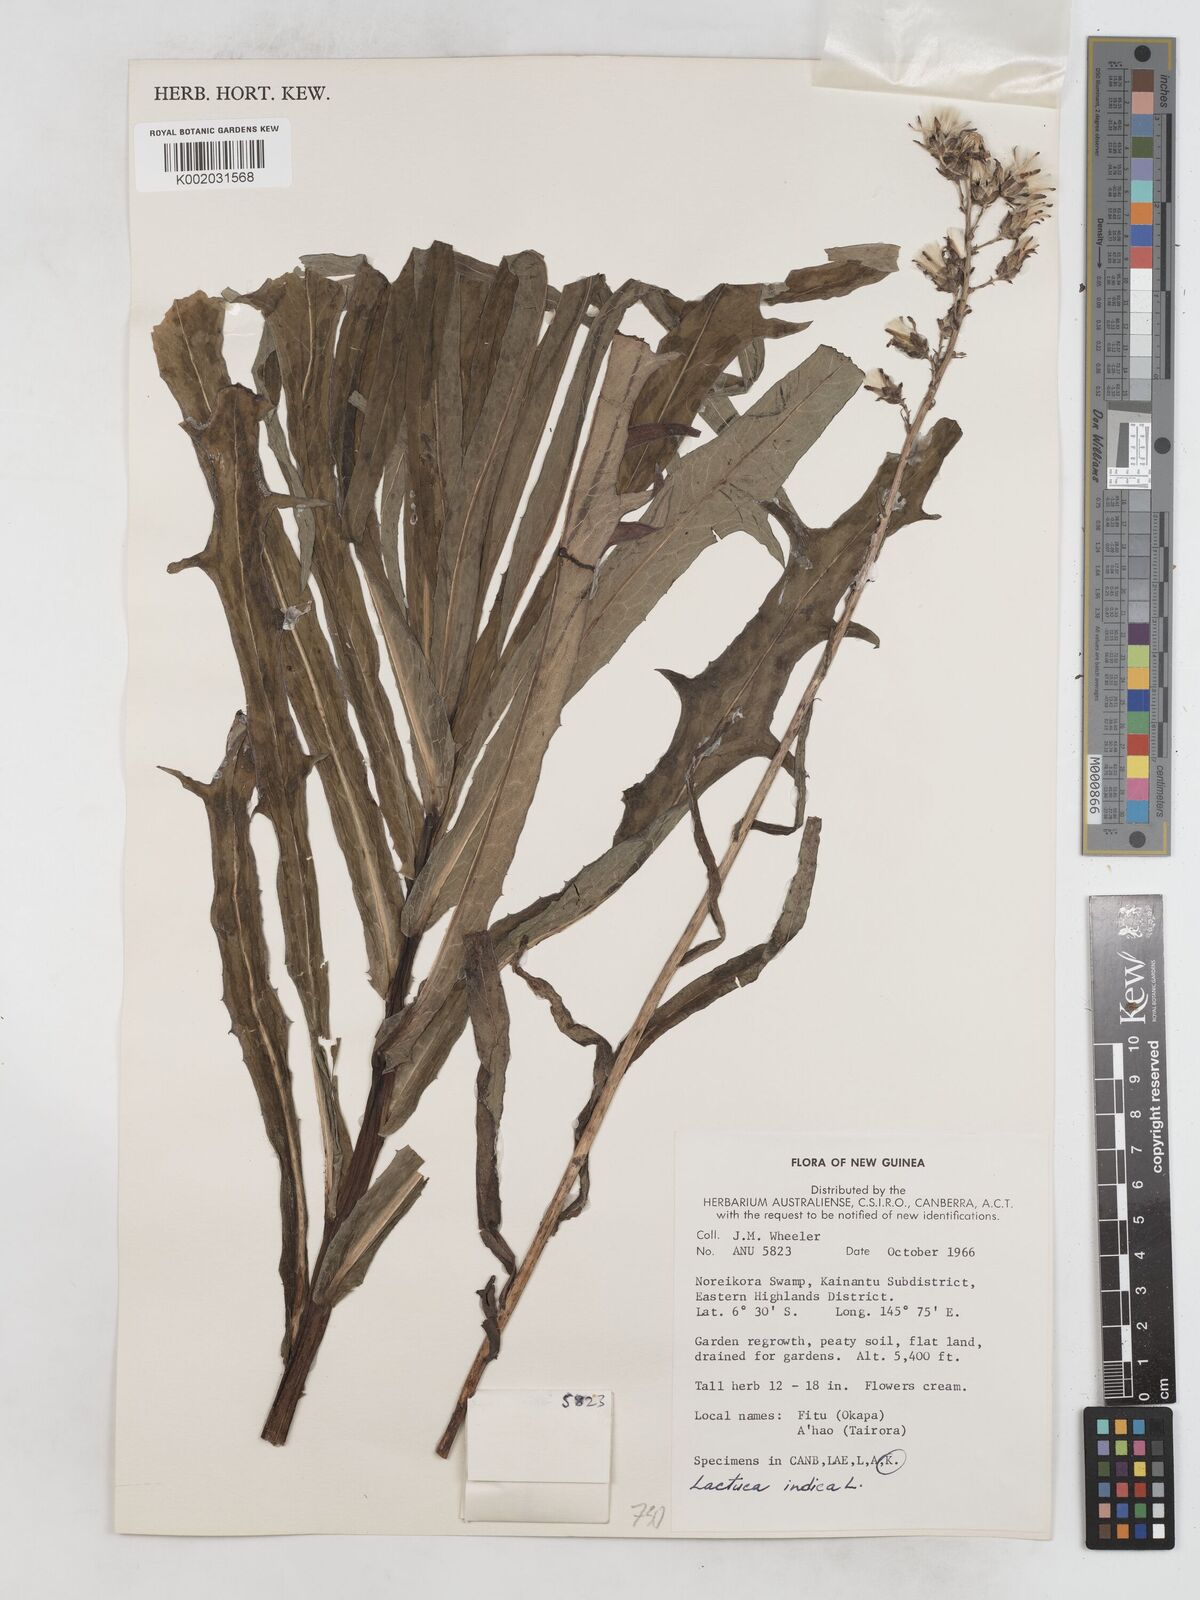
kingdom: Plantae
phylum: Tracheophyta
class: Magnoliopsida
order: Asterales
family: Asteraceae
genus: Lactuca
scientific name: Lactuca indica
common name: Wild lettuce
